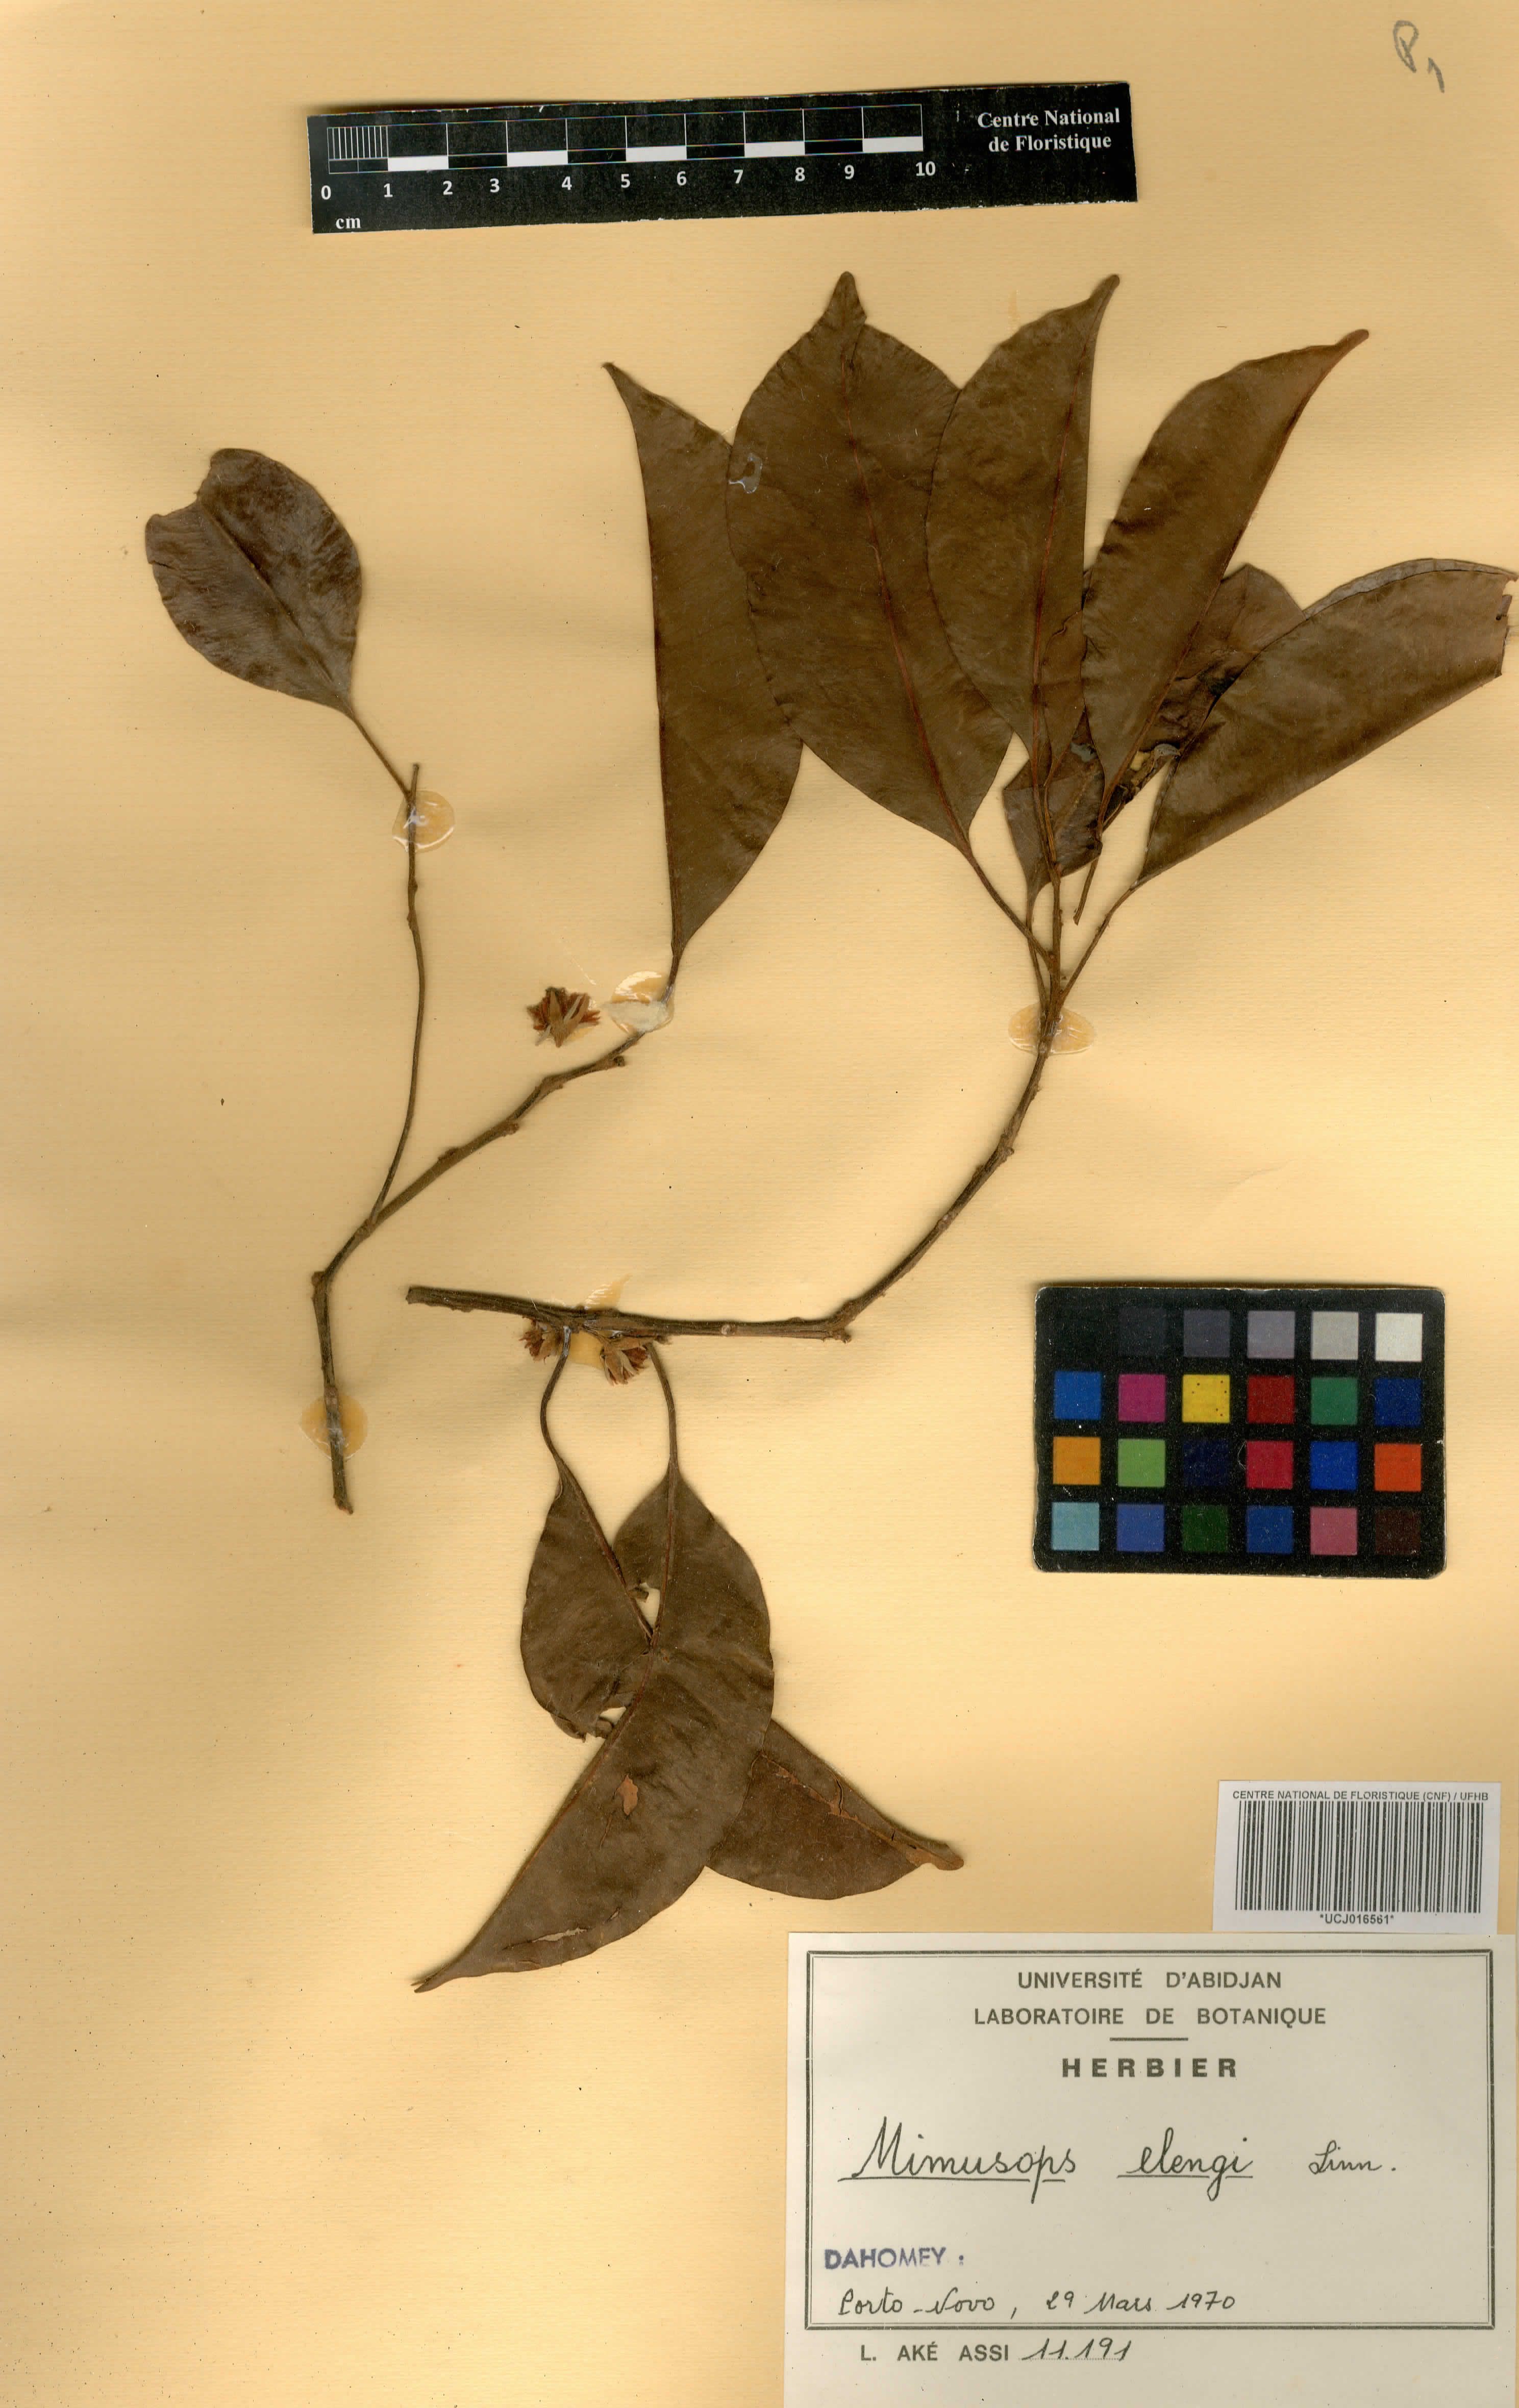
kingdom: Plantae
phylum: Tracheophyta
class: Magnoliopsida
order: Ericales
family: Sapotaceae
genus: Mimusops
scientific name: Mimusops elengi
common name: Spanish cherry
